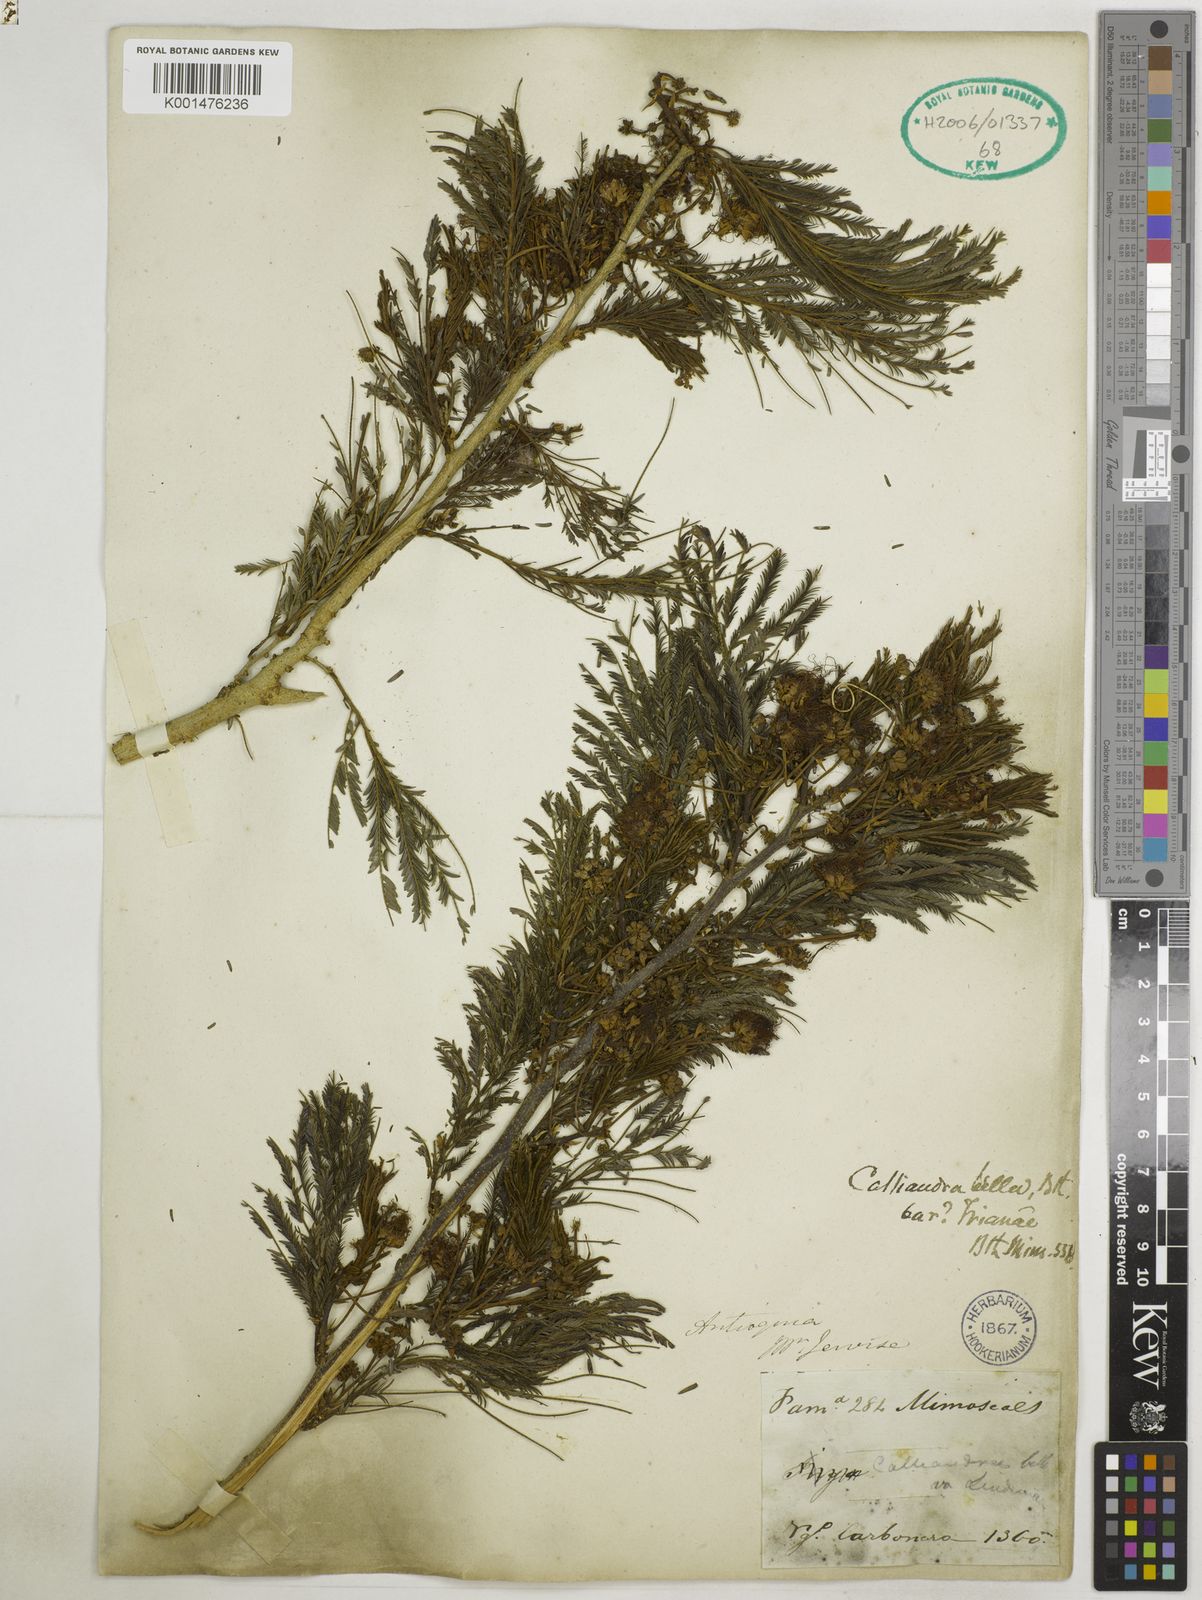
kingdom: Plantae
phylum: Tracheophyta
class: Magnoliopsida
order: Fabales
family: Fabaceae
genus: Calliandra
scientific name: Calliandra pittieri
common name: Carbonero de avenidas
